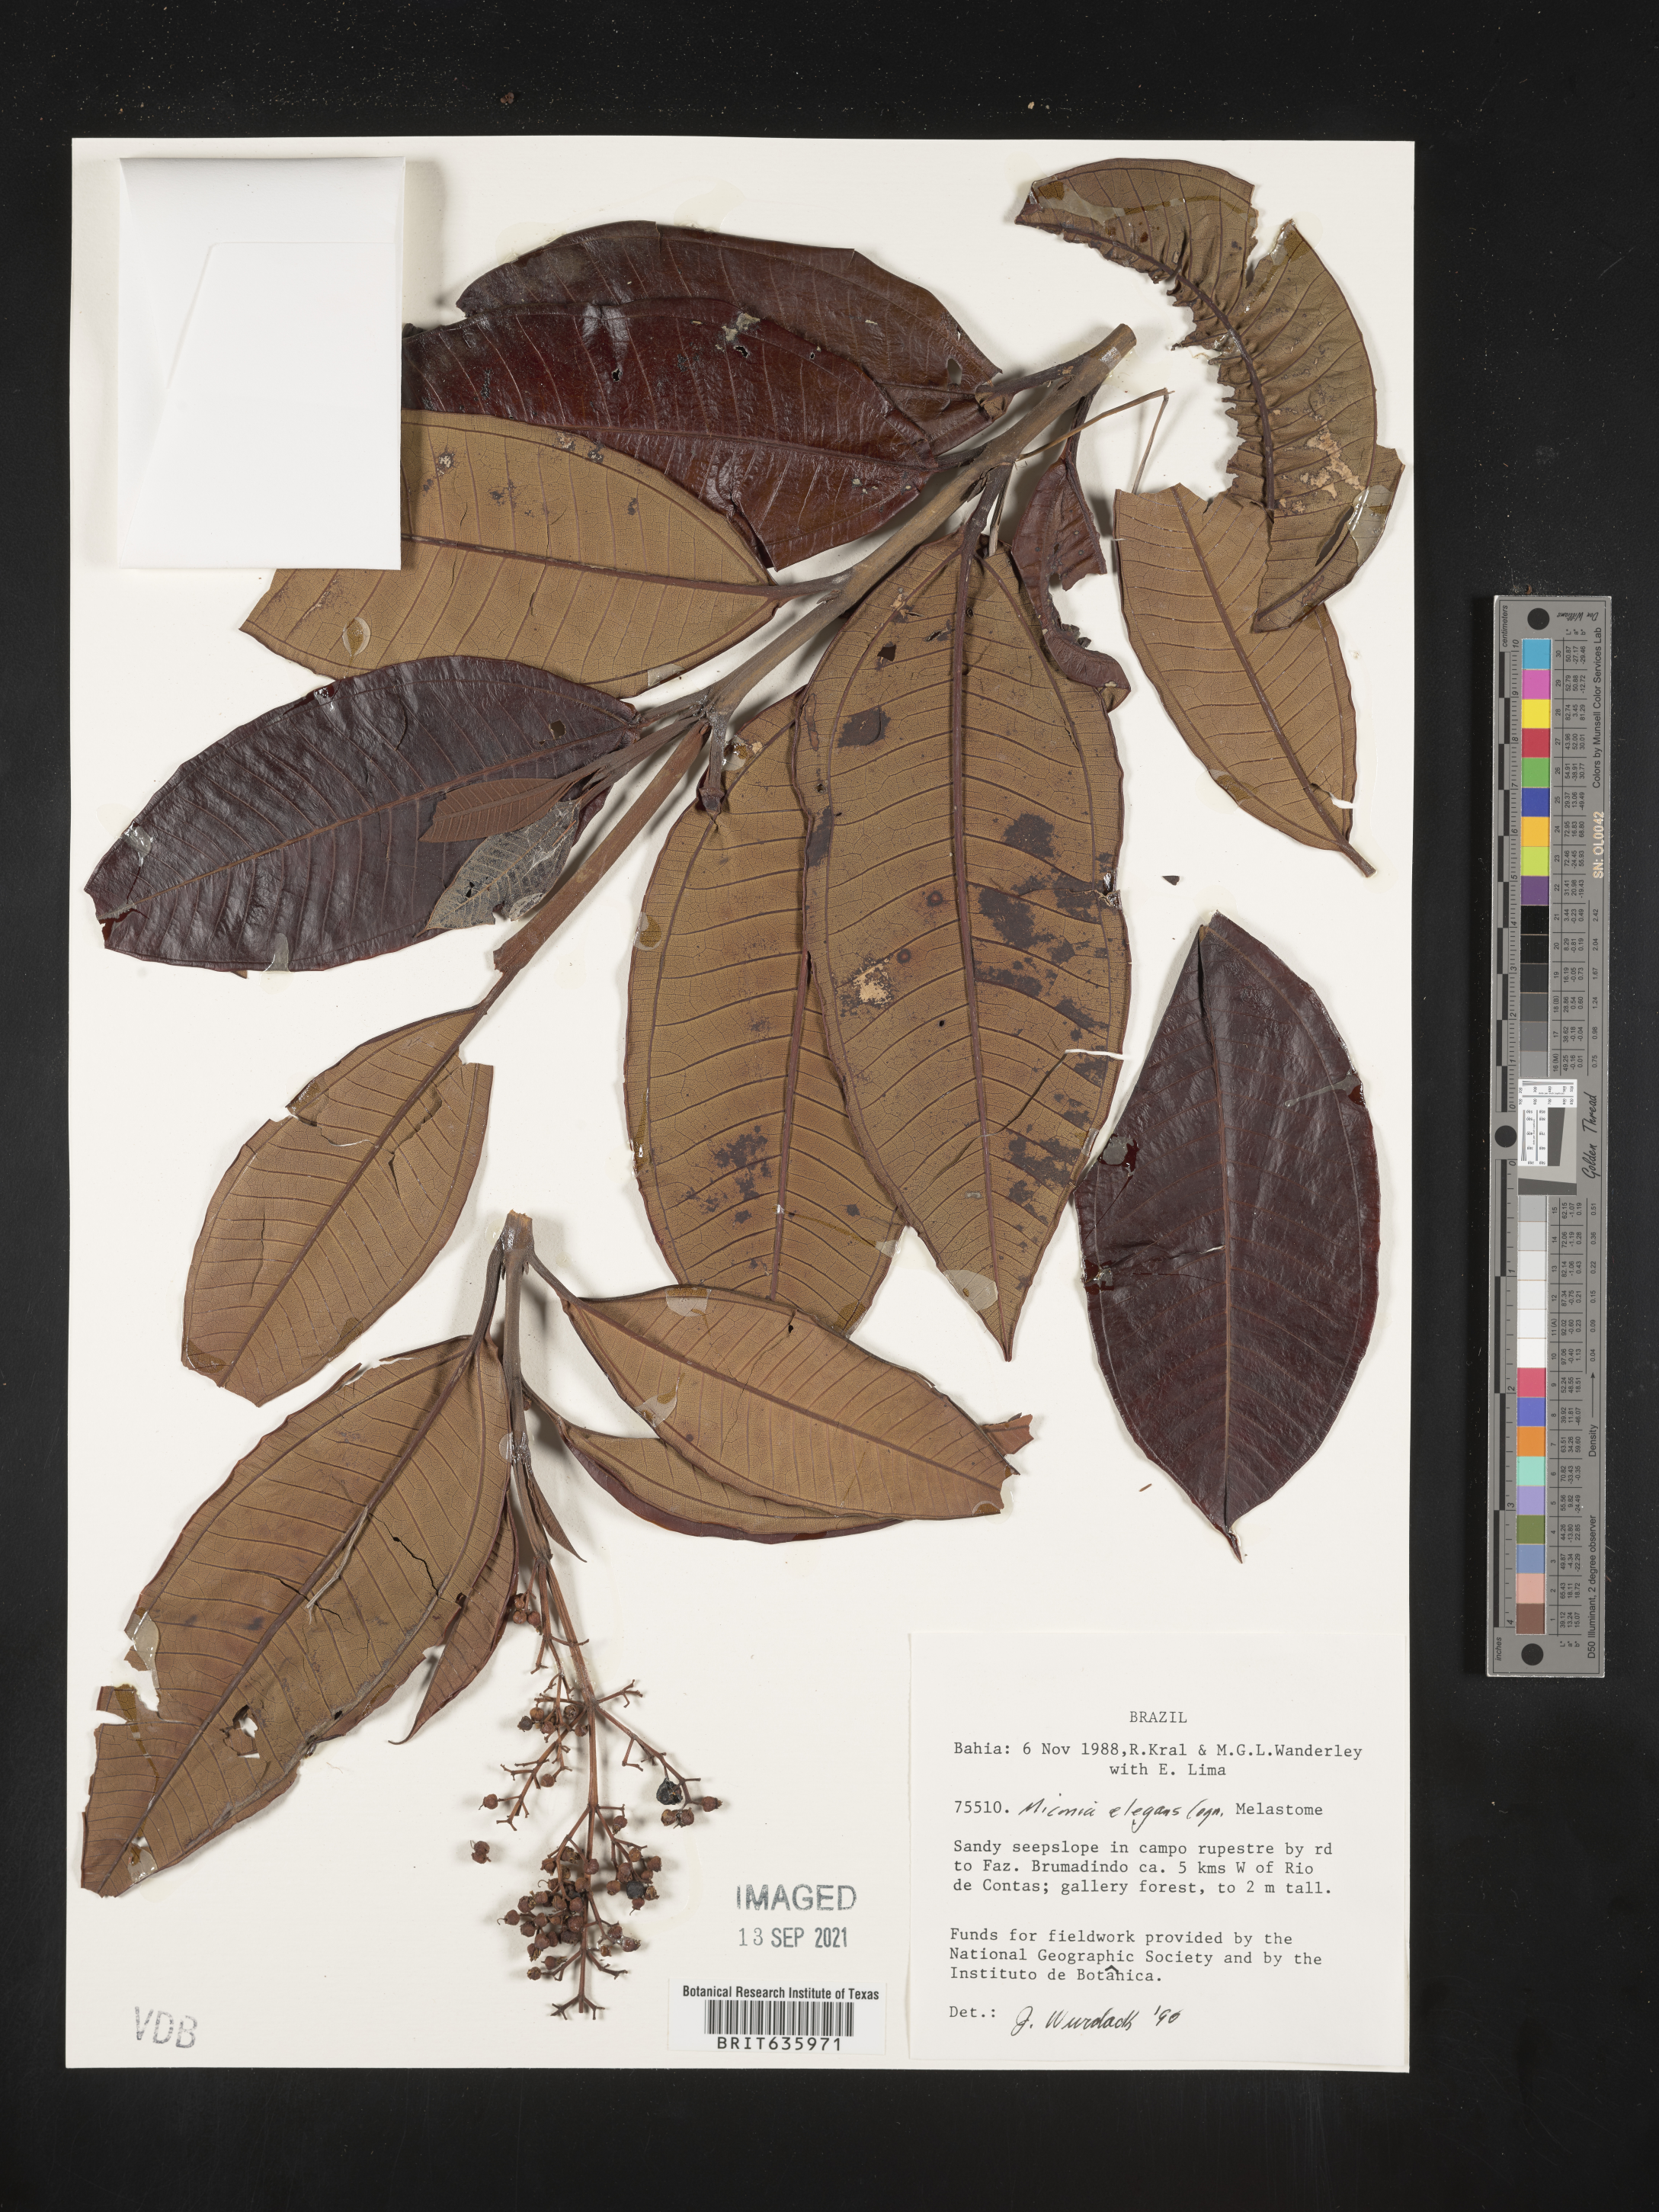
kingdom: Plantae
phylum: Tracheophyta
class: Magnoliopsida
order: Myrtales
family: Melastomataceae
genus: Miconia
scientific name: Miconia
